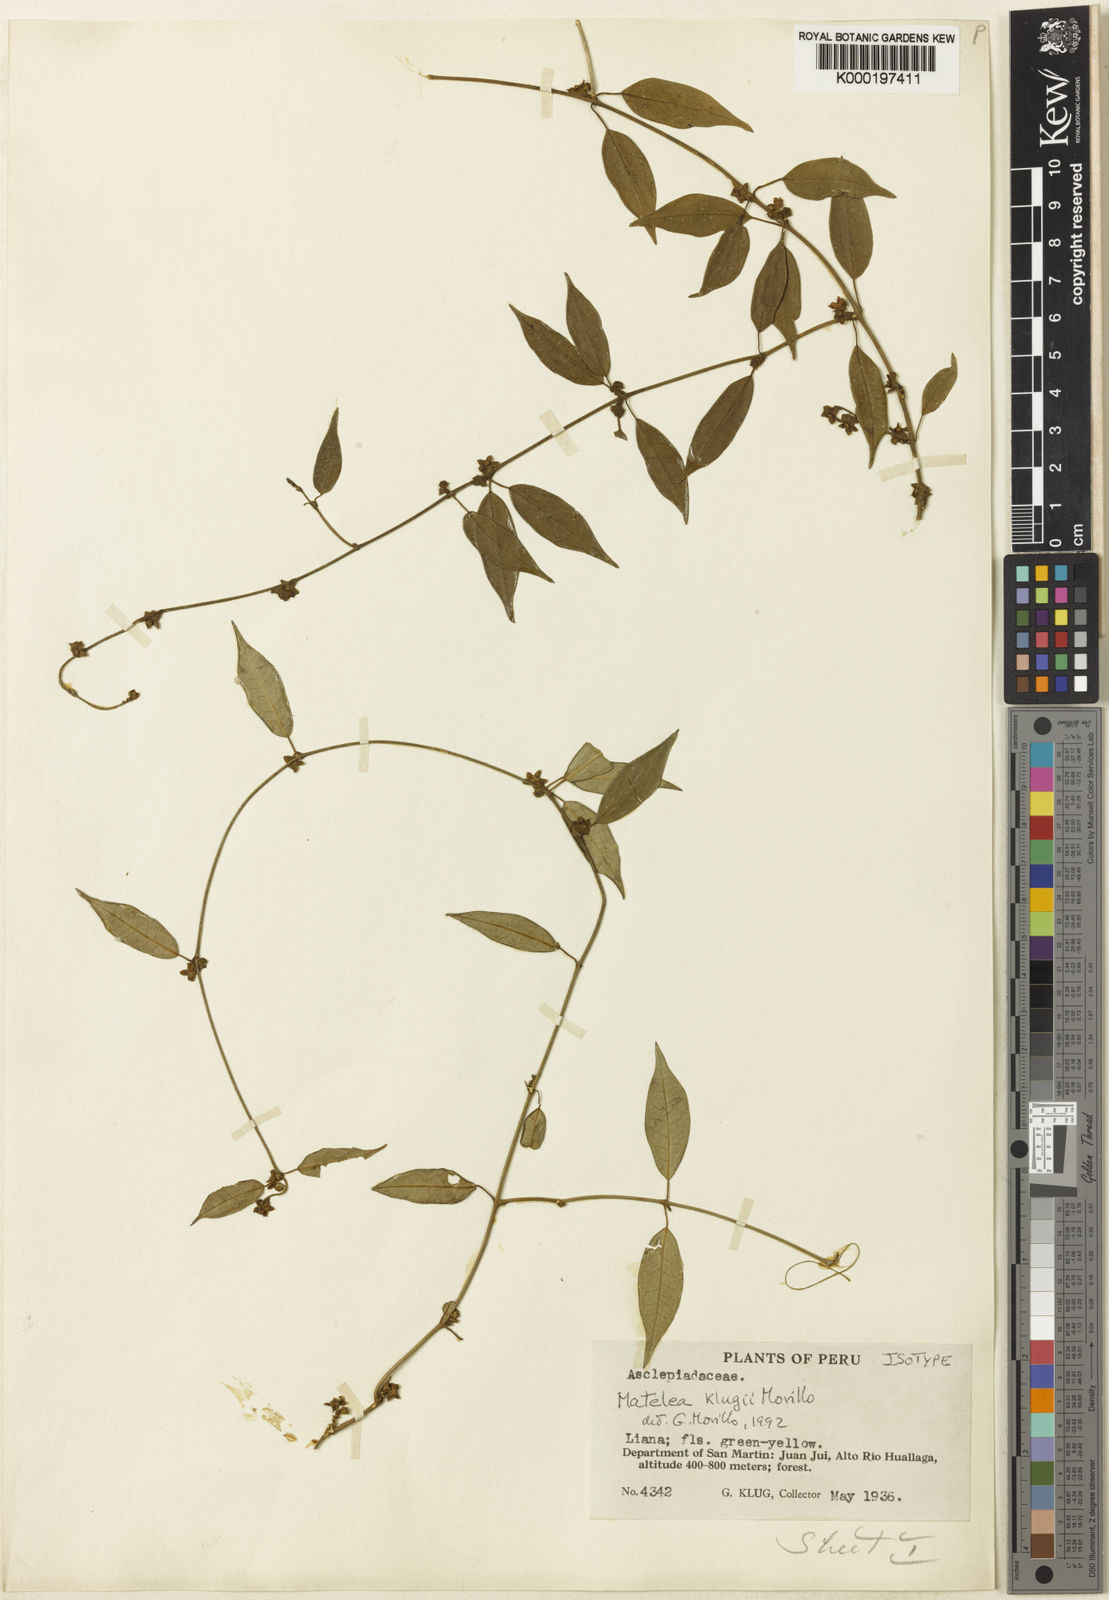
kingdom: Plantae
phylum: Tracheophyta
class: Magnoliopsida
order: Gentianales
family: Apocynaceae
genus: Matelea
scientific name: Matelea klugii
